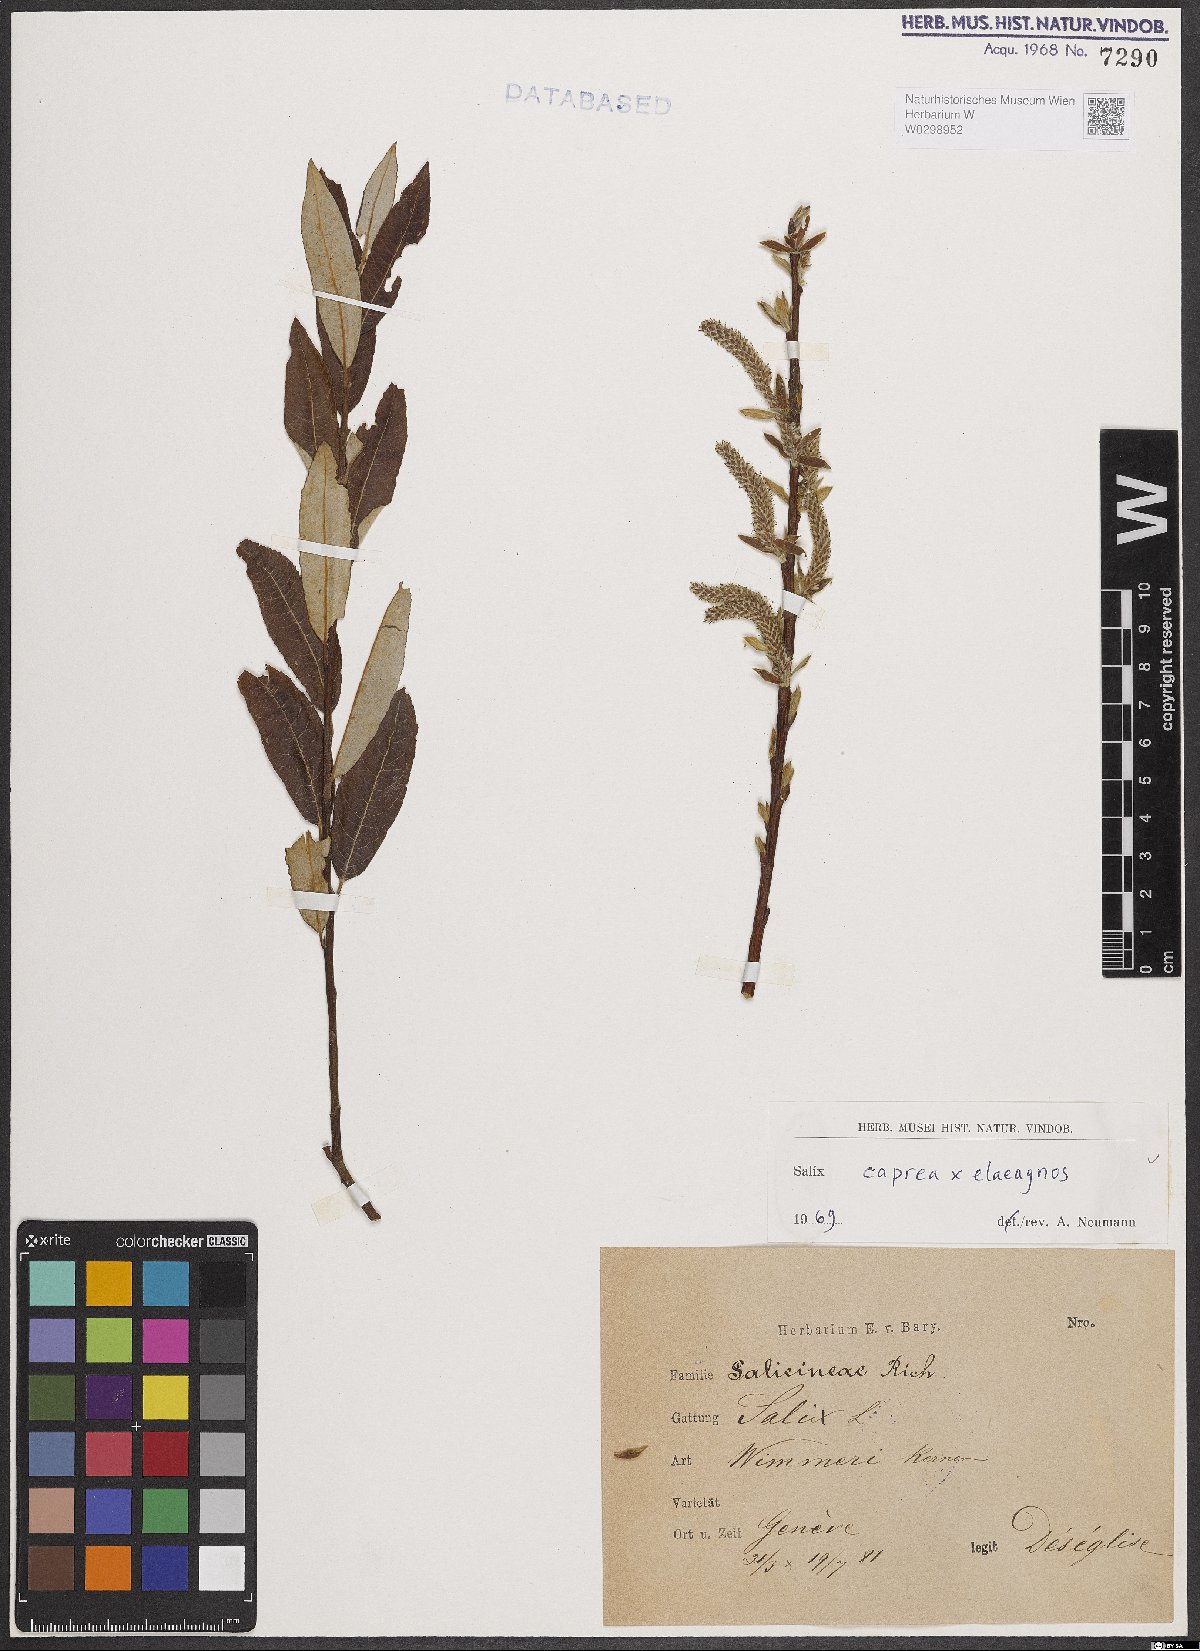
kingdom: Plantae
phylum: Tracheophyta
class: Magnoliopsida
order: Malpighiales
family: Salicaceae
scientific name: Salicaceae
